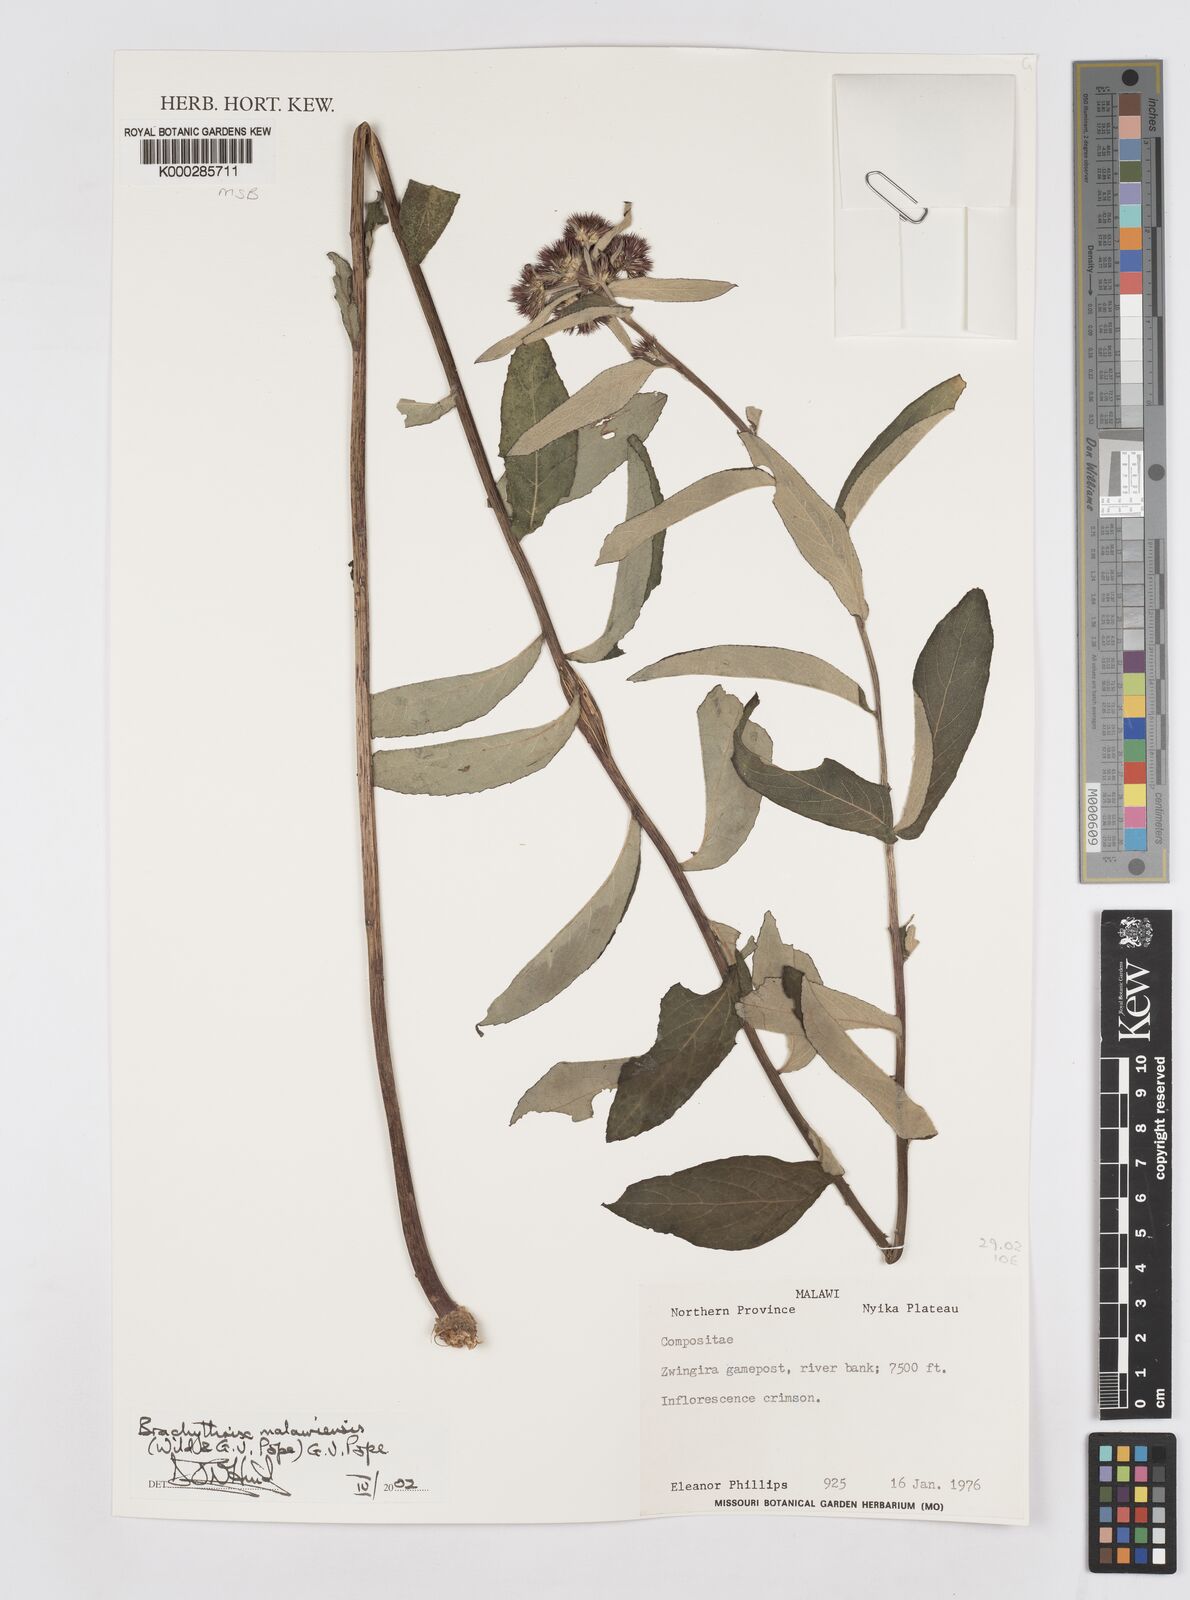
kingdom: Plantae
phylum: Tracheophyta
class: Magnoliopsida
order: Asterales
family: Asteraceae
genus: Brachythrix
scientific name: Brachythrix malawiensis
